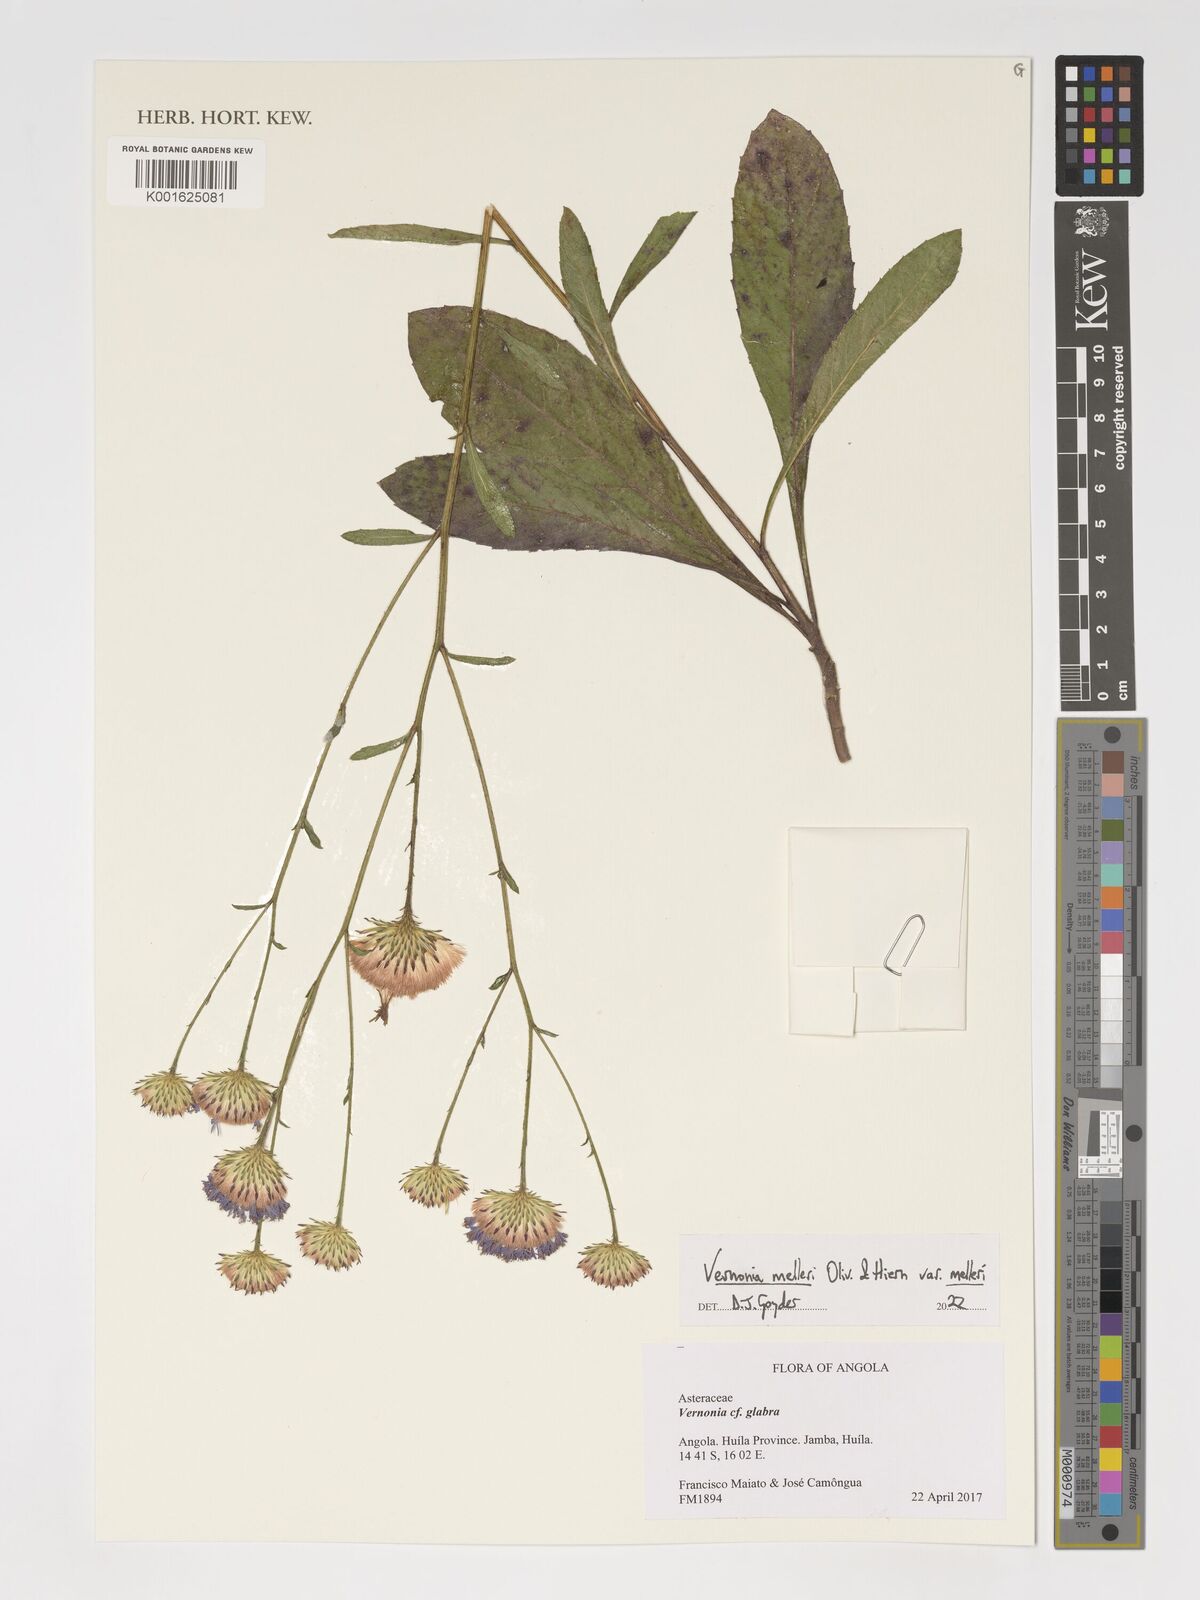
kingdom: Plantae
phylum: Tracheophyta
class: Magnoliopsida
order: Asterales
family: Asteraceae
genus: Linzia
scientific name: Linzia melleri
